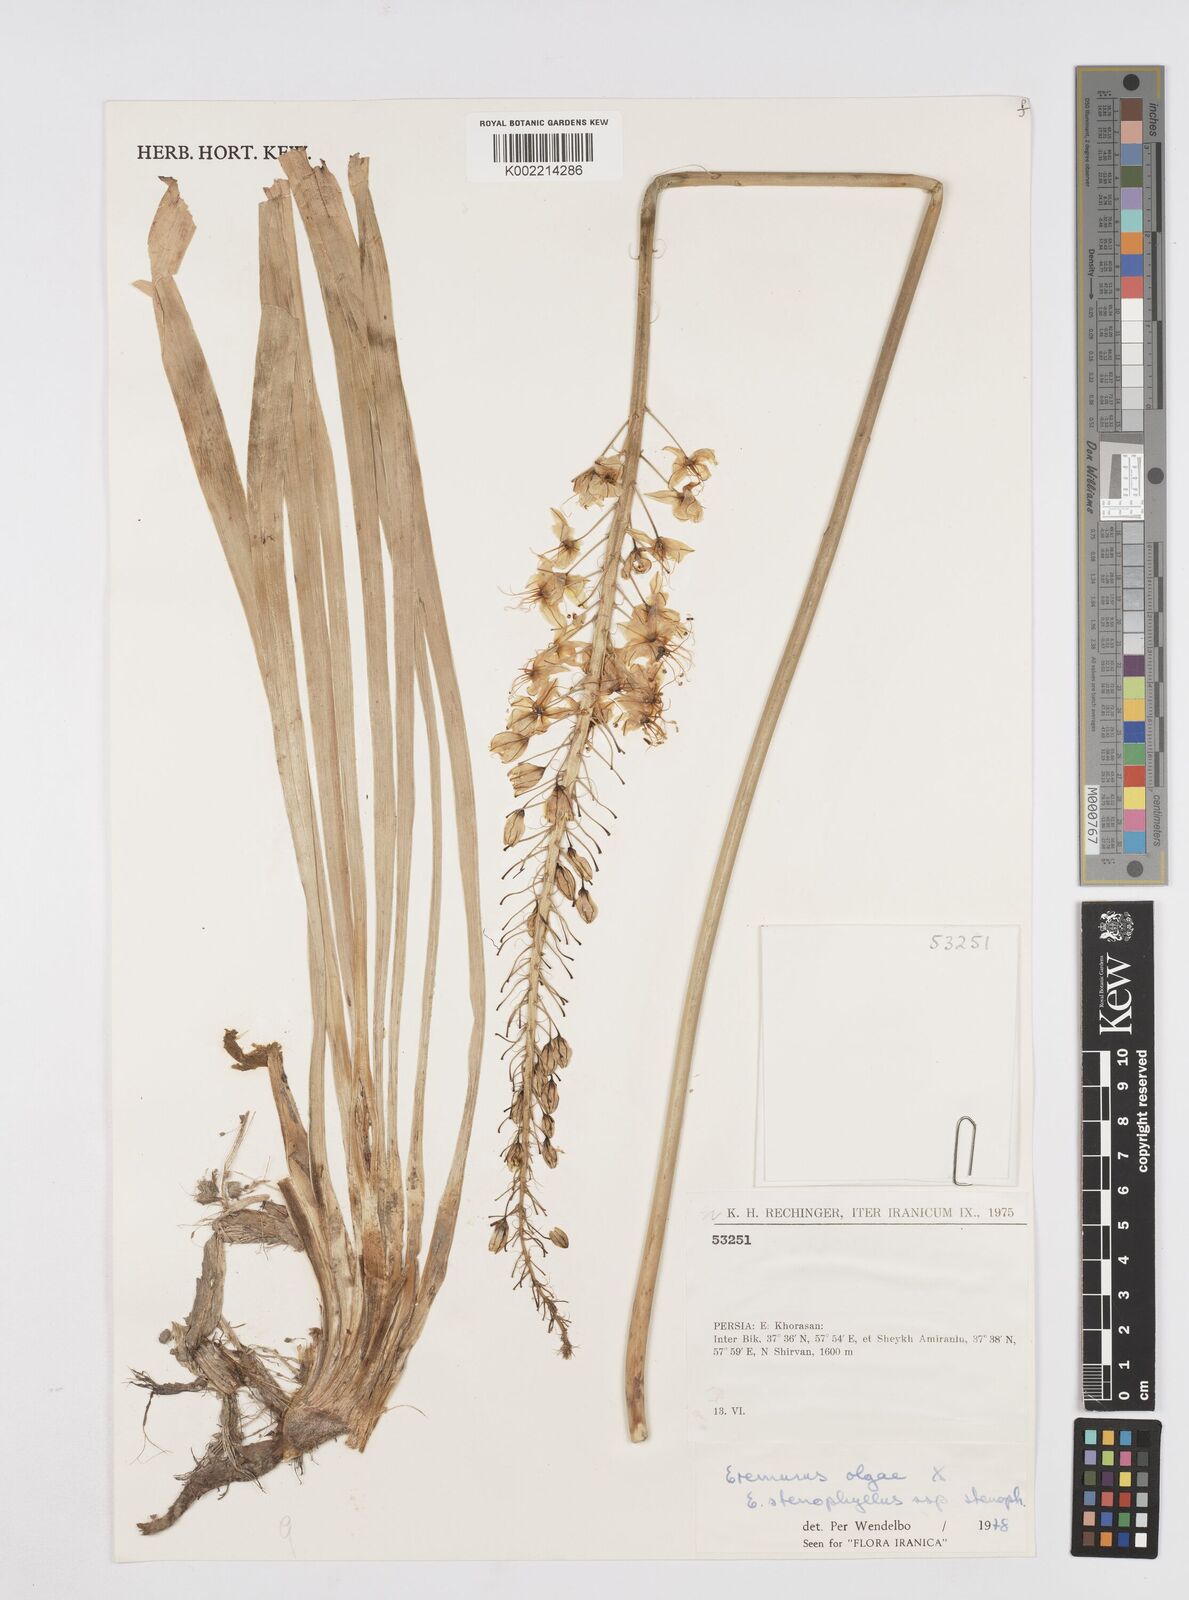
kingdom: Plantae
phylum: Tracheophyta
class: Liliopsida
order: Asparagales
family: Asphodelaceae
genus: Eremurus
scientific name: Eremurus olgae
